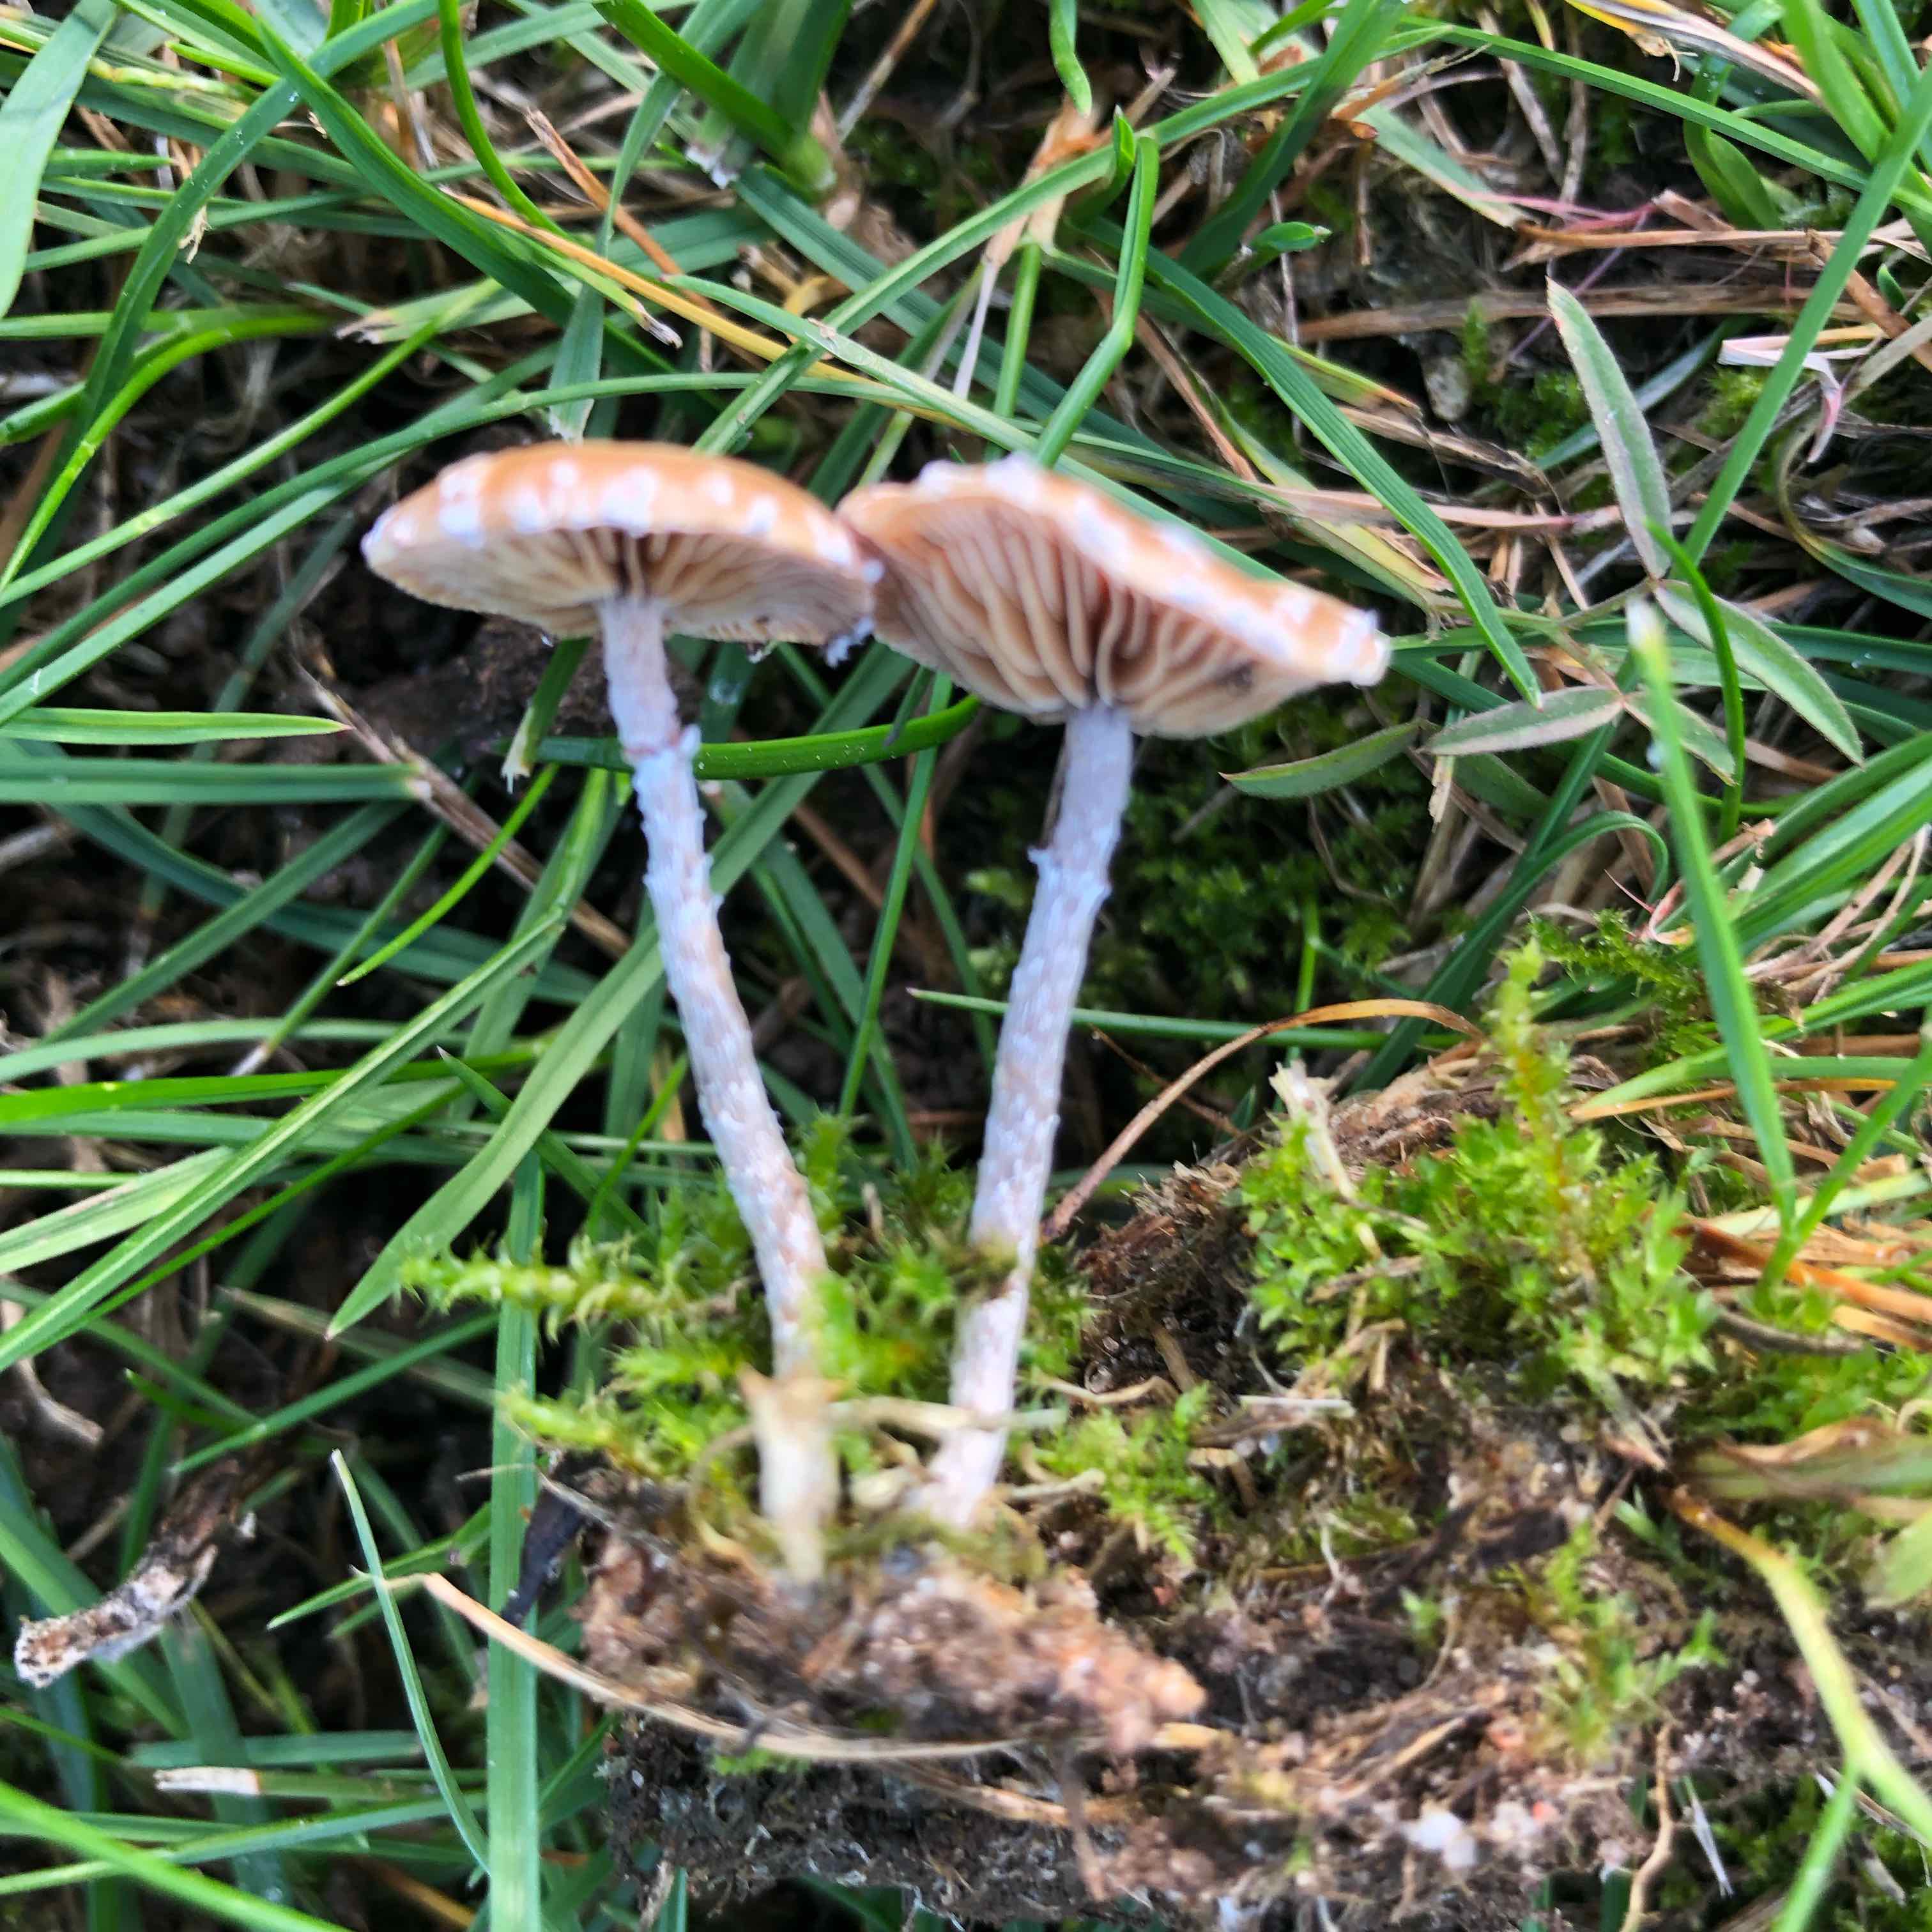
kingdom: Fungi
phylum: Basidiomycota
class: Agaricomycetes
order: Agaricales
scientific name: Agaricales
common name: champignonordenen
